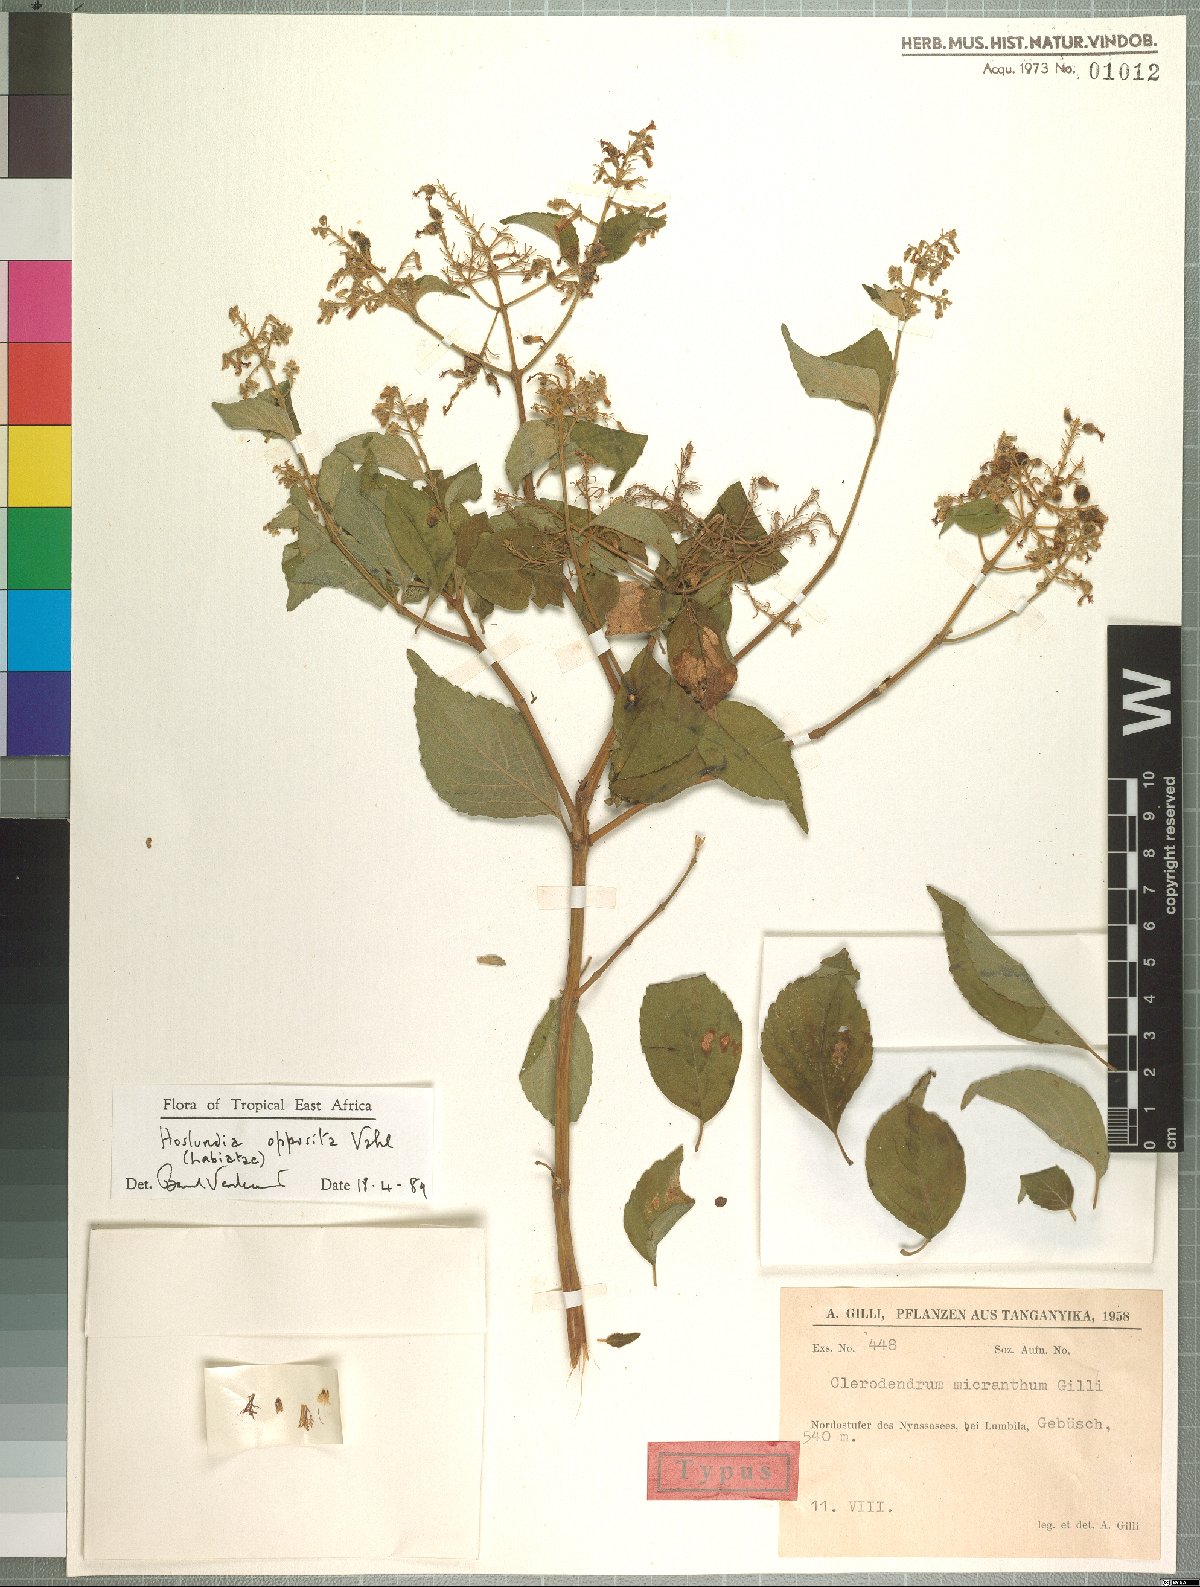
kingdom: Plantae
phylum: Tracheophyta
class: Magnoliopsida
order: Lamiales
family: Lamiaceae
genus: Hoslundia
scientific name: Hoslundia opposita
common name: Kamyuye
